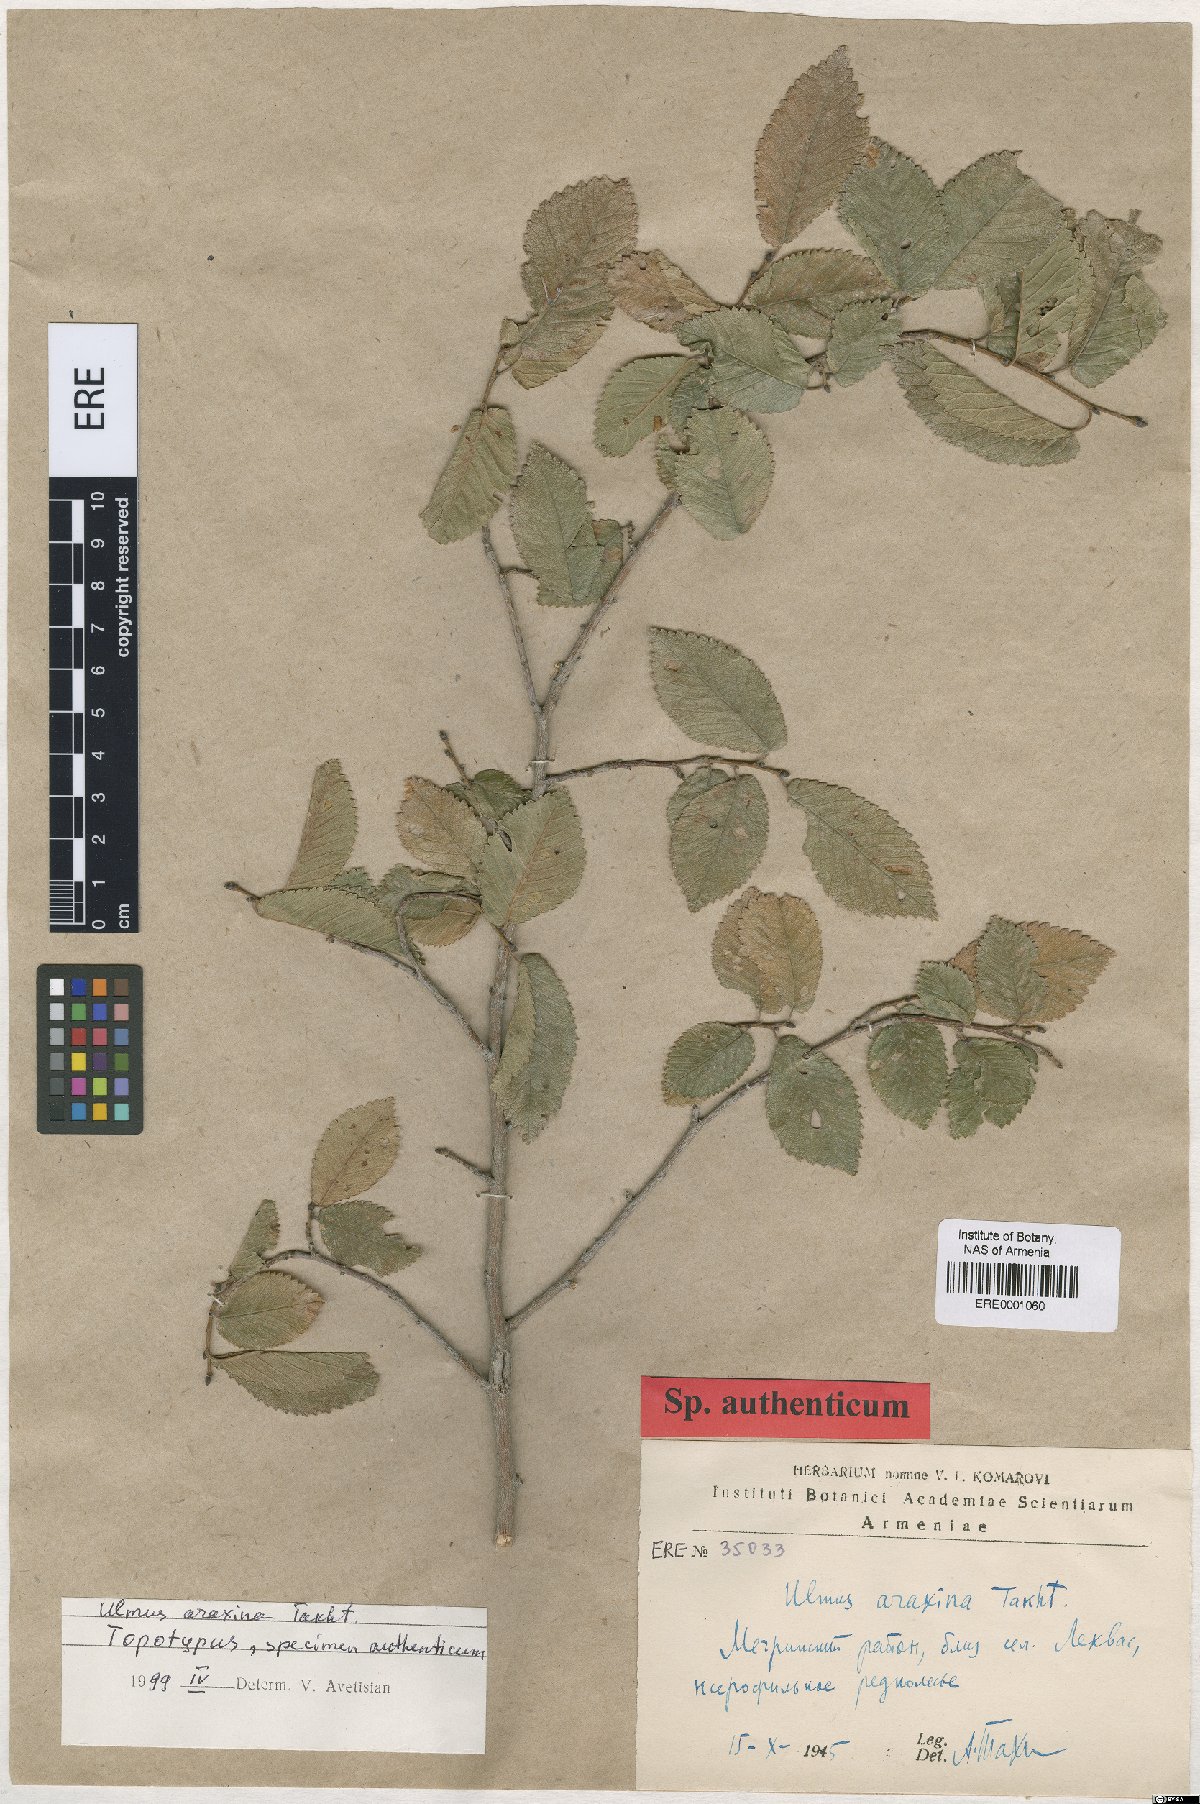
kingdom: Plantae
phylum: Tracheophyta
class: Magnoliopsida
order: Rosales
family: Ulmaceae
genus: Ulmus
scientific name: Ulmus minor
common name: Small-leaved elm
